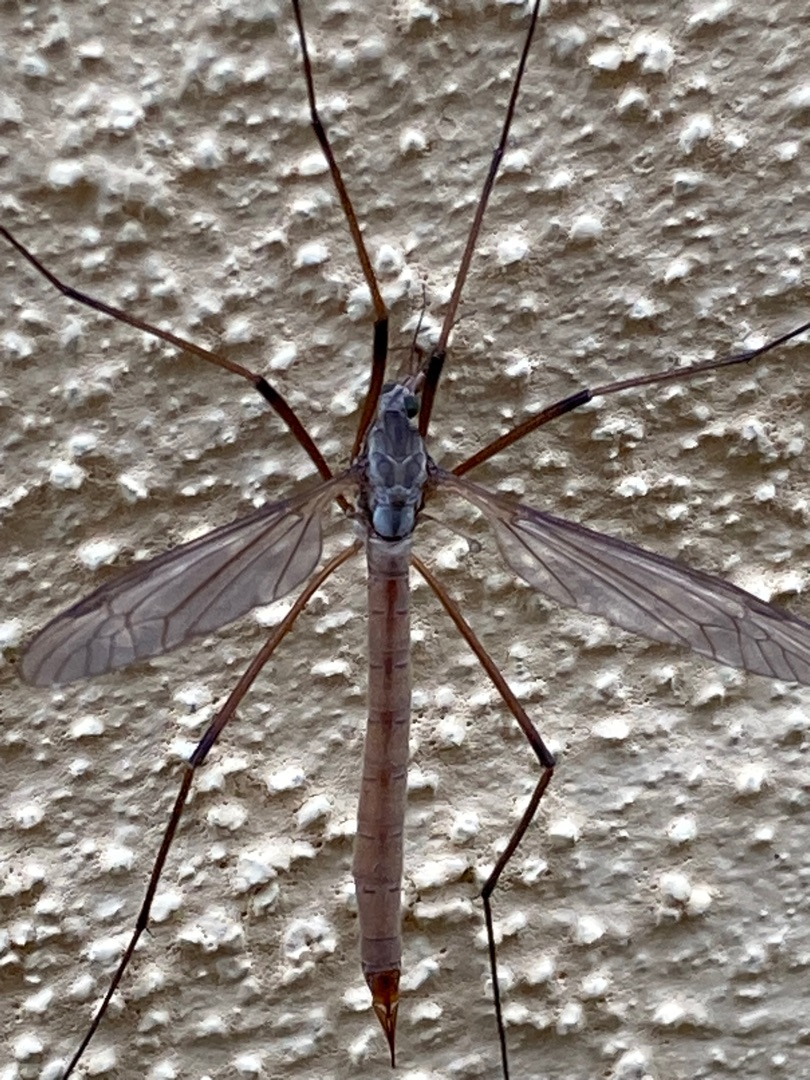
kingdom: Animalia
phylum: Arthropoda
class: Insecta
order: Diptera
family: Tipulidae
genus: Tipula
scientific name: Tipula paludosa
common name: Mosestankelben
